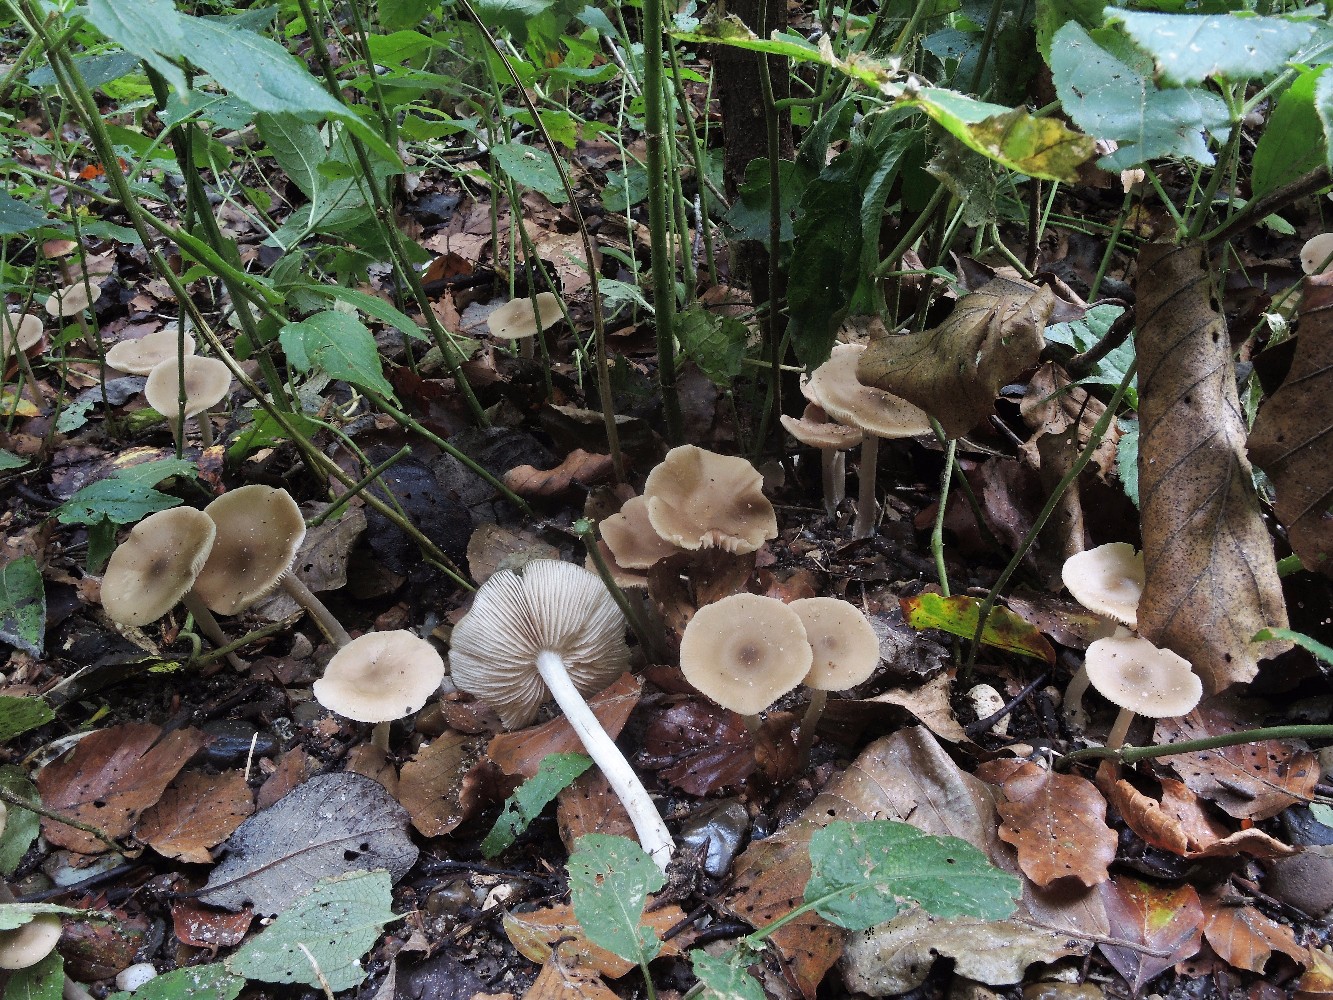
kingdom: Fungi
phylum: Basidiomycota
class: Agaricomycetes
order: Agaricales
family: Entolomataceae
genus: Entoloma
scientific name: Entoloma rhodopolium
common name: skov-rødblad
